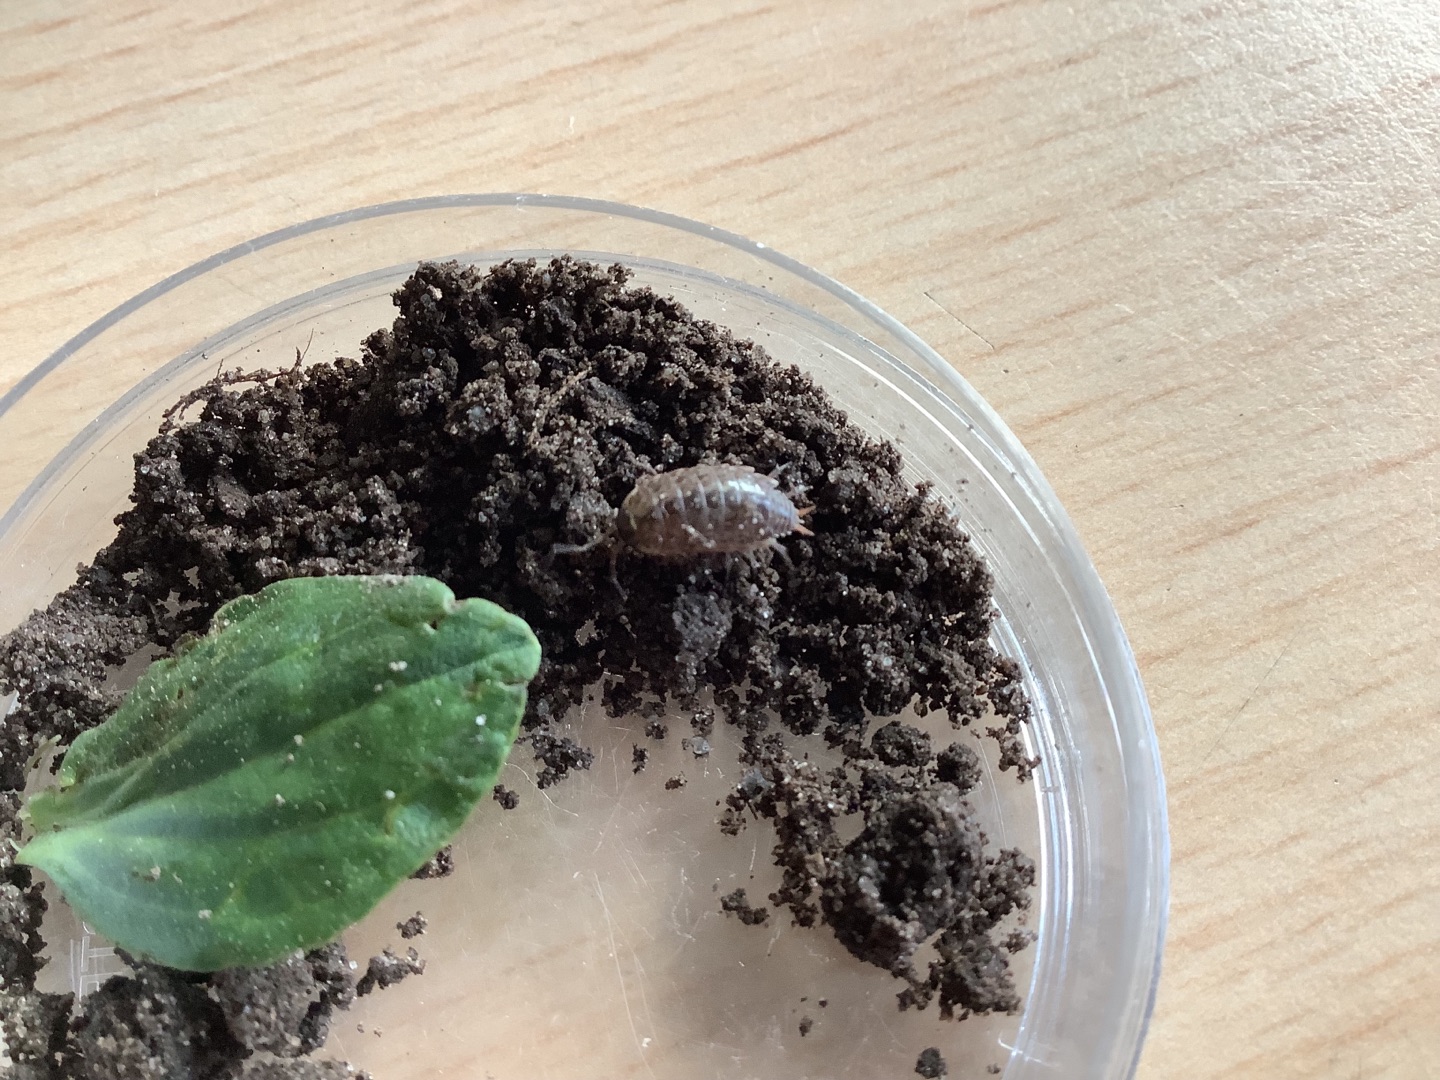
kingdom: Animalia
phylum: Arthropoda
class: Malacostraca
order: Isopoda
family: Philosciidae
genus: Philoscia
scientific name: Philoscia muscorum
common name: Langbenet bænkebider
